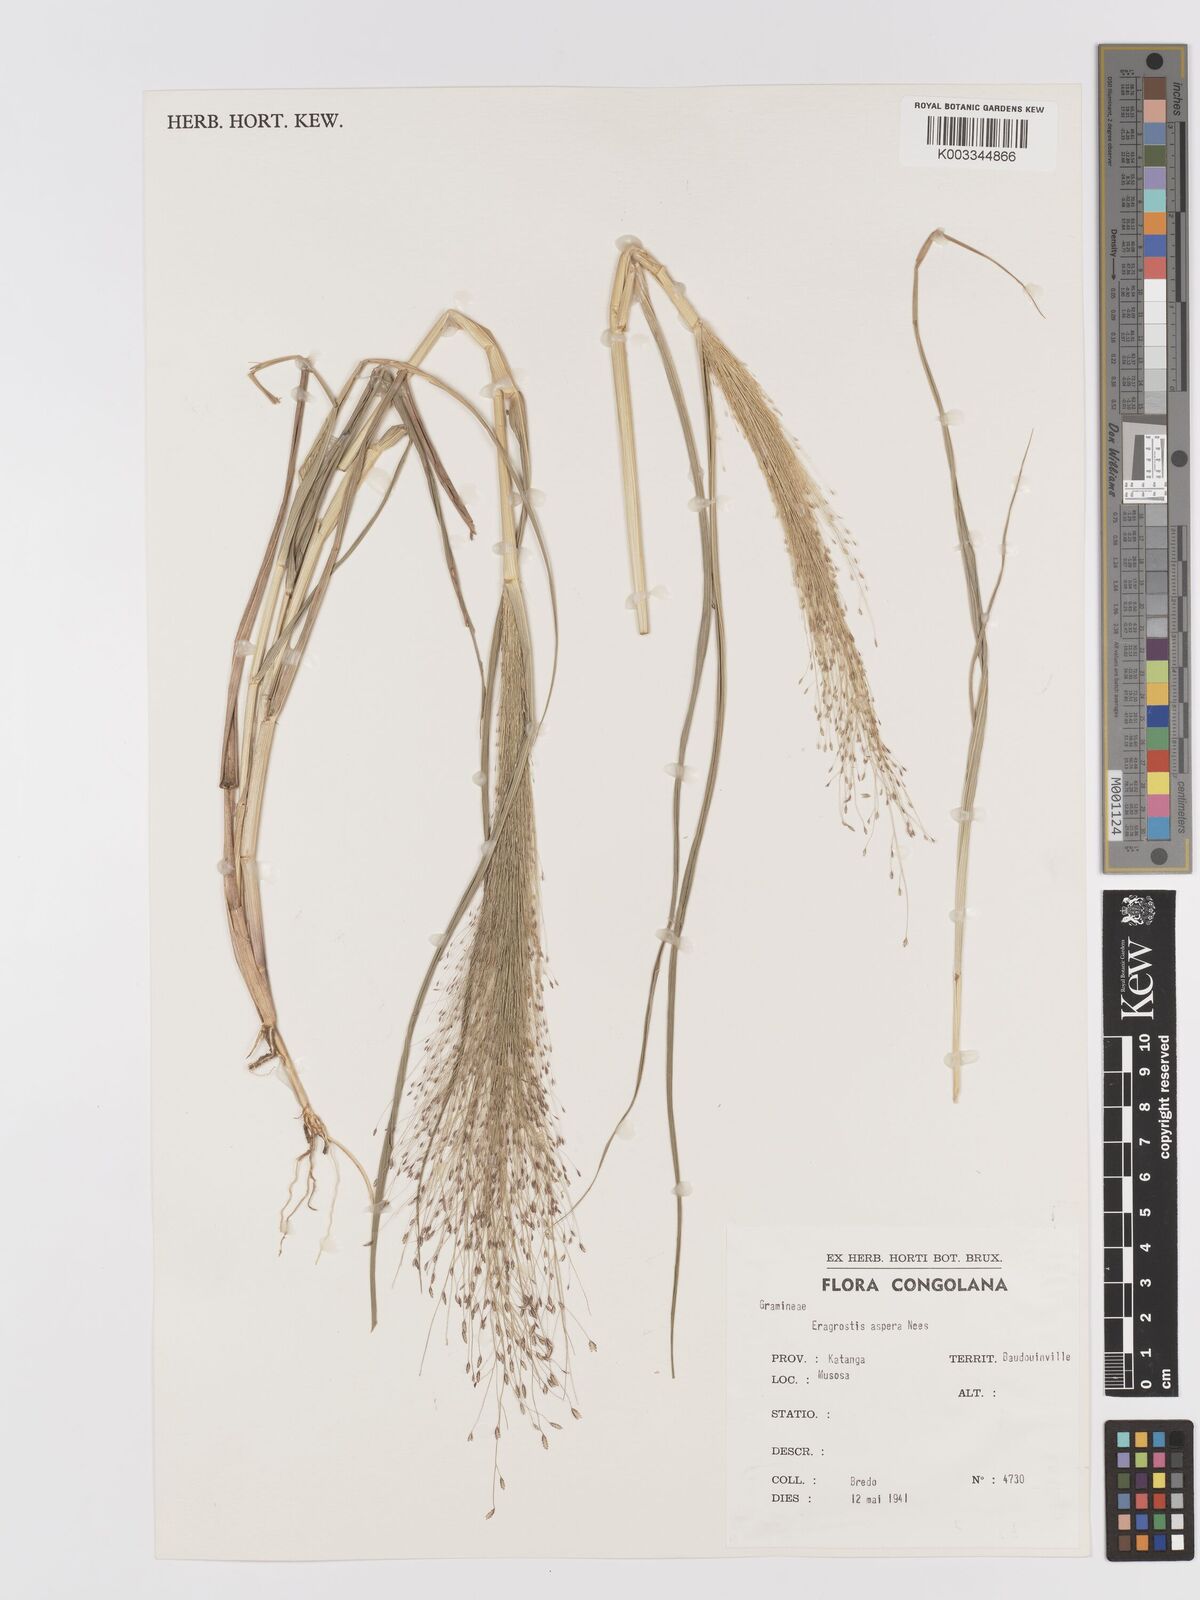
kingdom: Plantae
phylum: Tracheophyta
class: Liliopsida
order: Poales
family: Poaceae
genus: Eragrostis
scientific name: Eragrostis aspera
